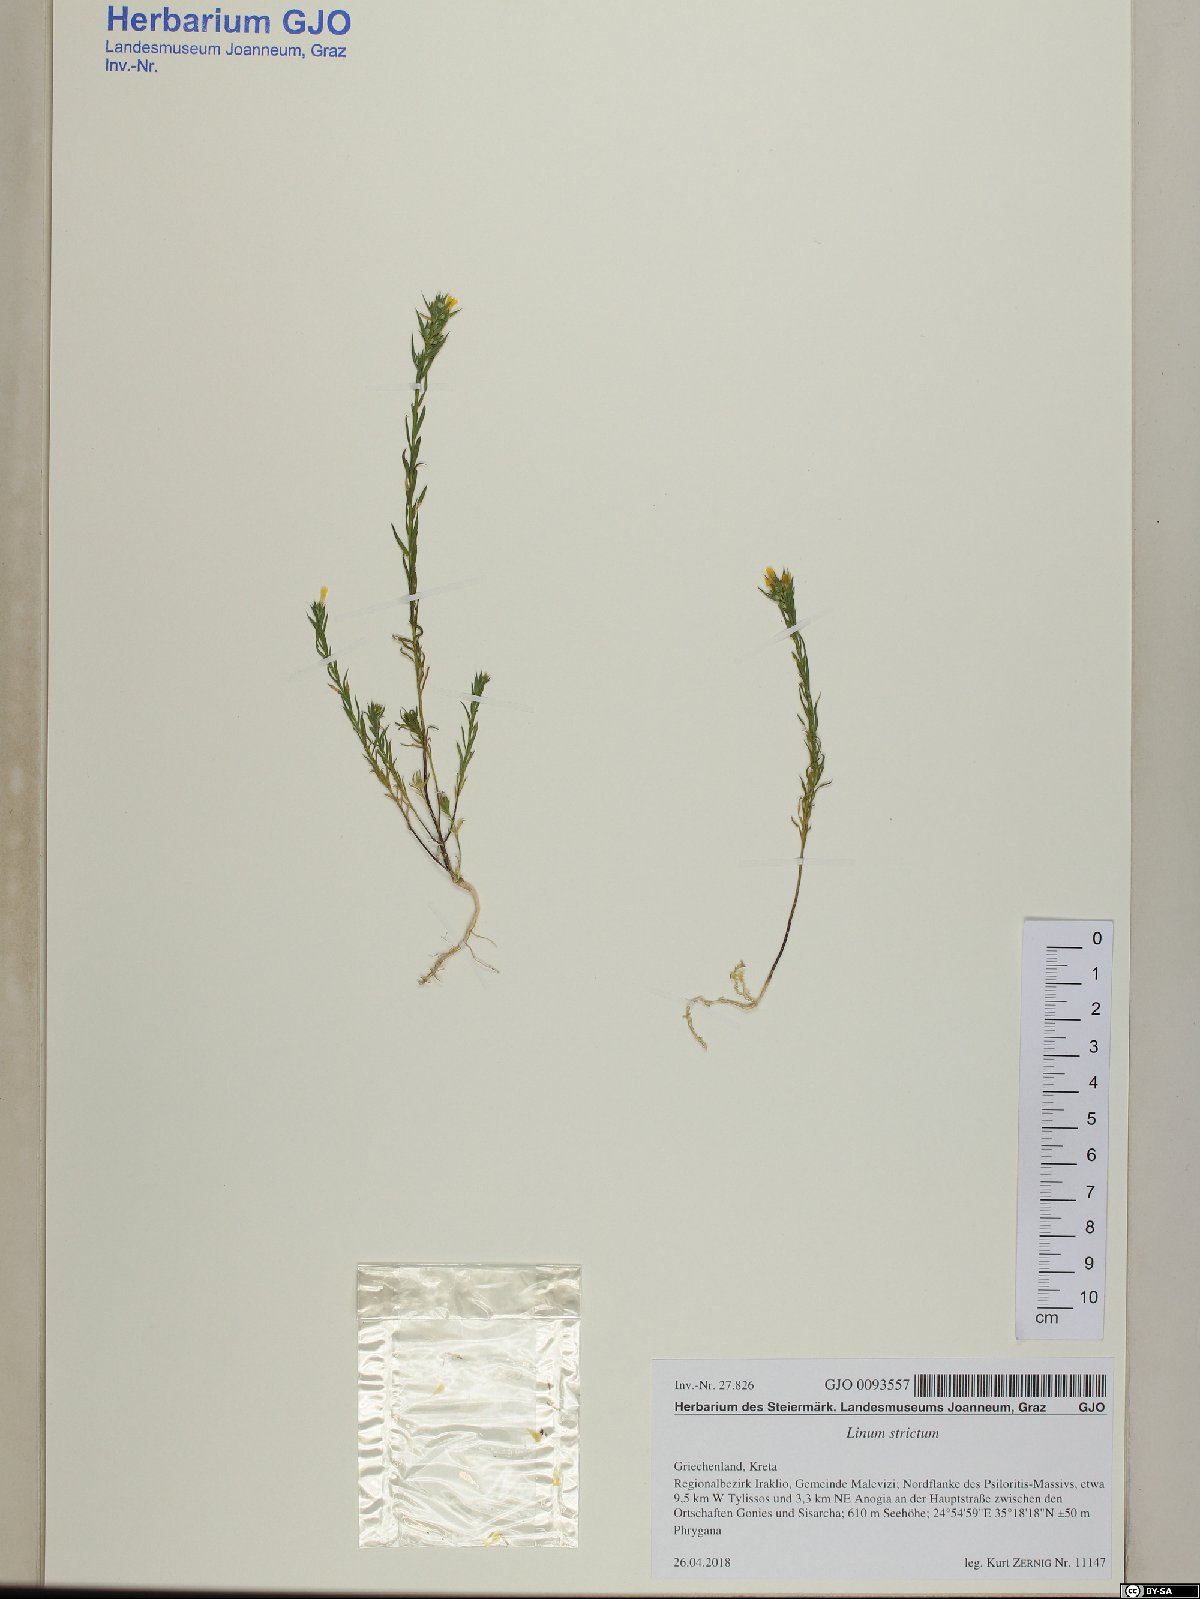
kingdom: Plantae
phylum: Tracheophyta
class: Magnoliopsida
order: Malpighiales
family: Linaceae
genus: Linum
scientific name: Linum strictum
